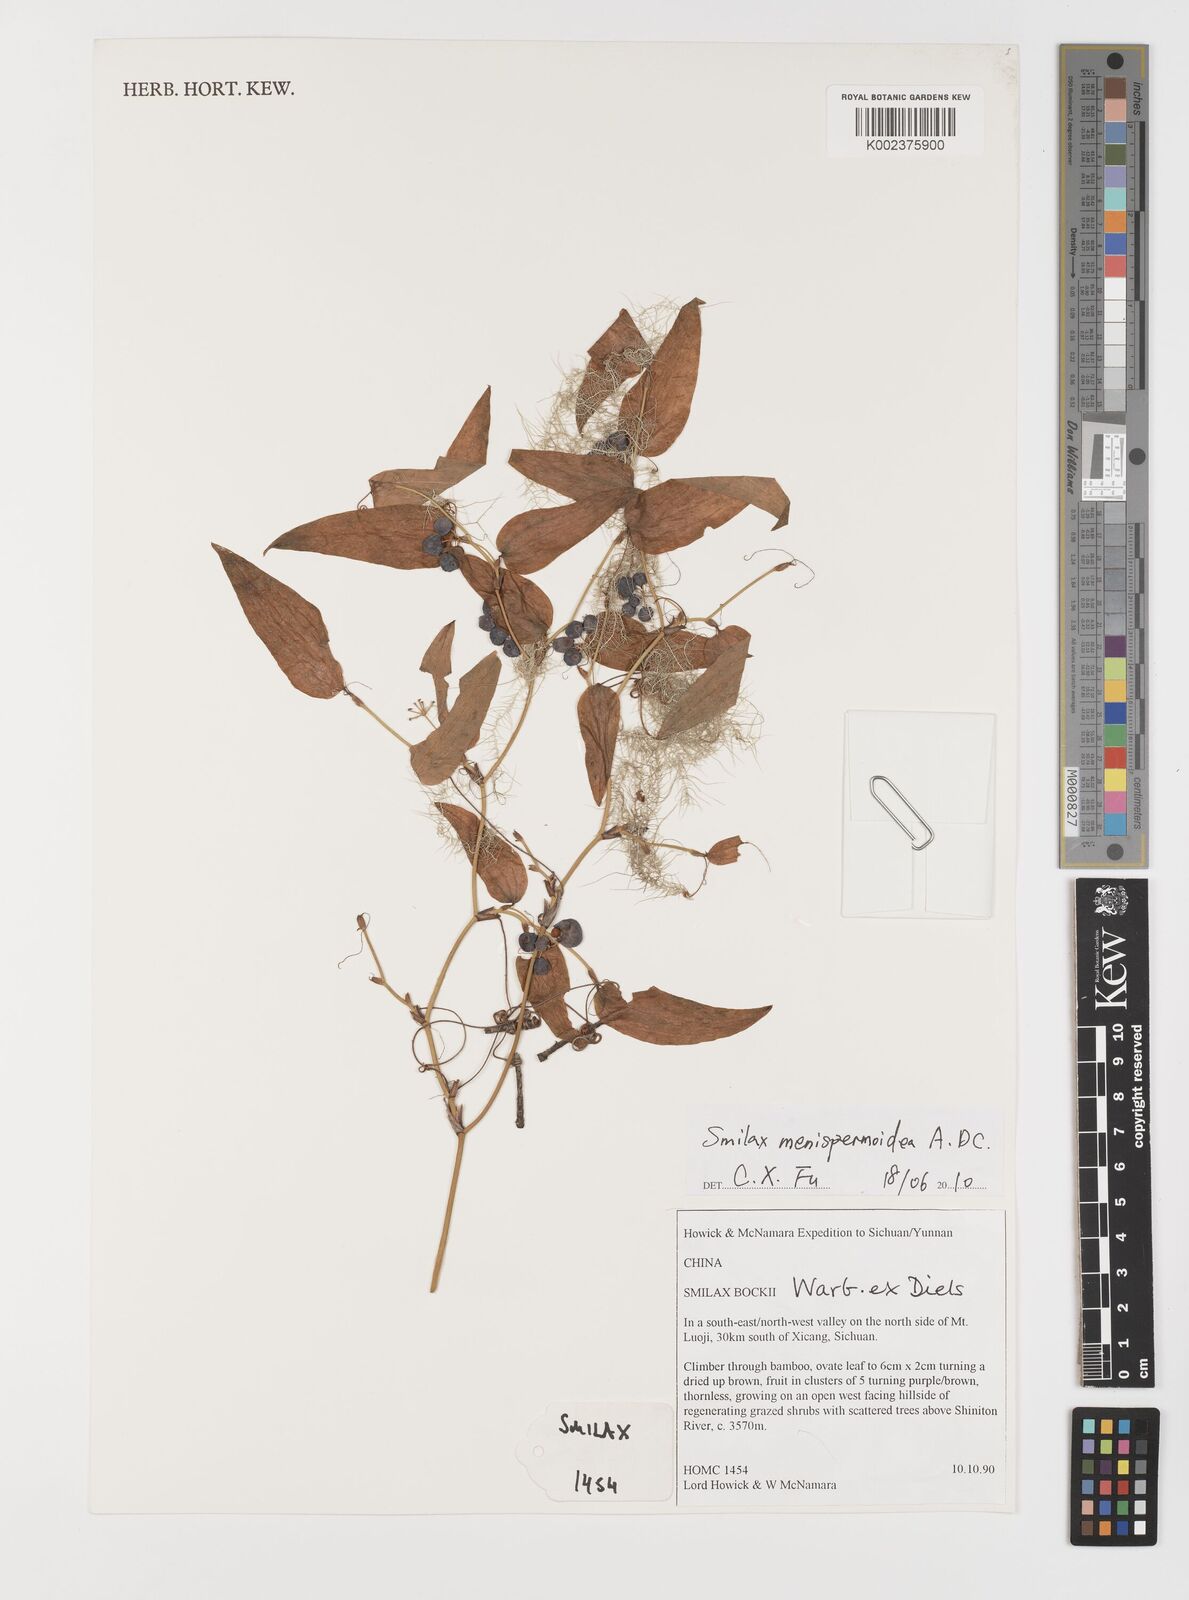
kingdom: Plantae
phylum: Tracheophyta
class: Liliopsida
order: Liliales
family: Smilacaceae
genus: Smilax
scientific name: Smilax menispermoidea
